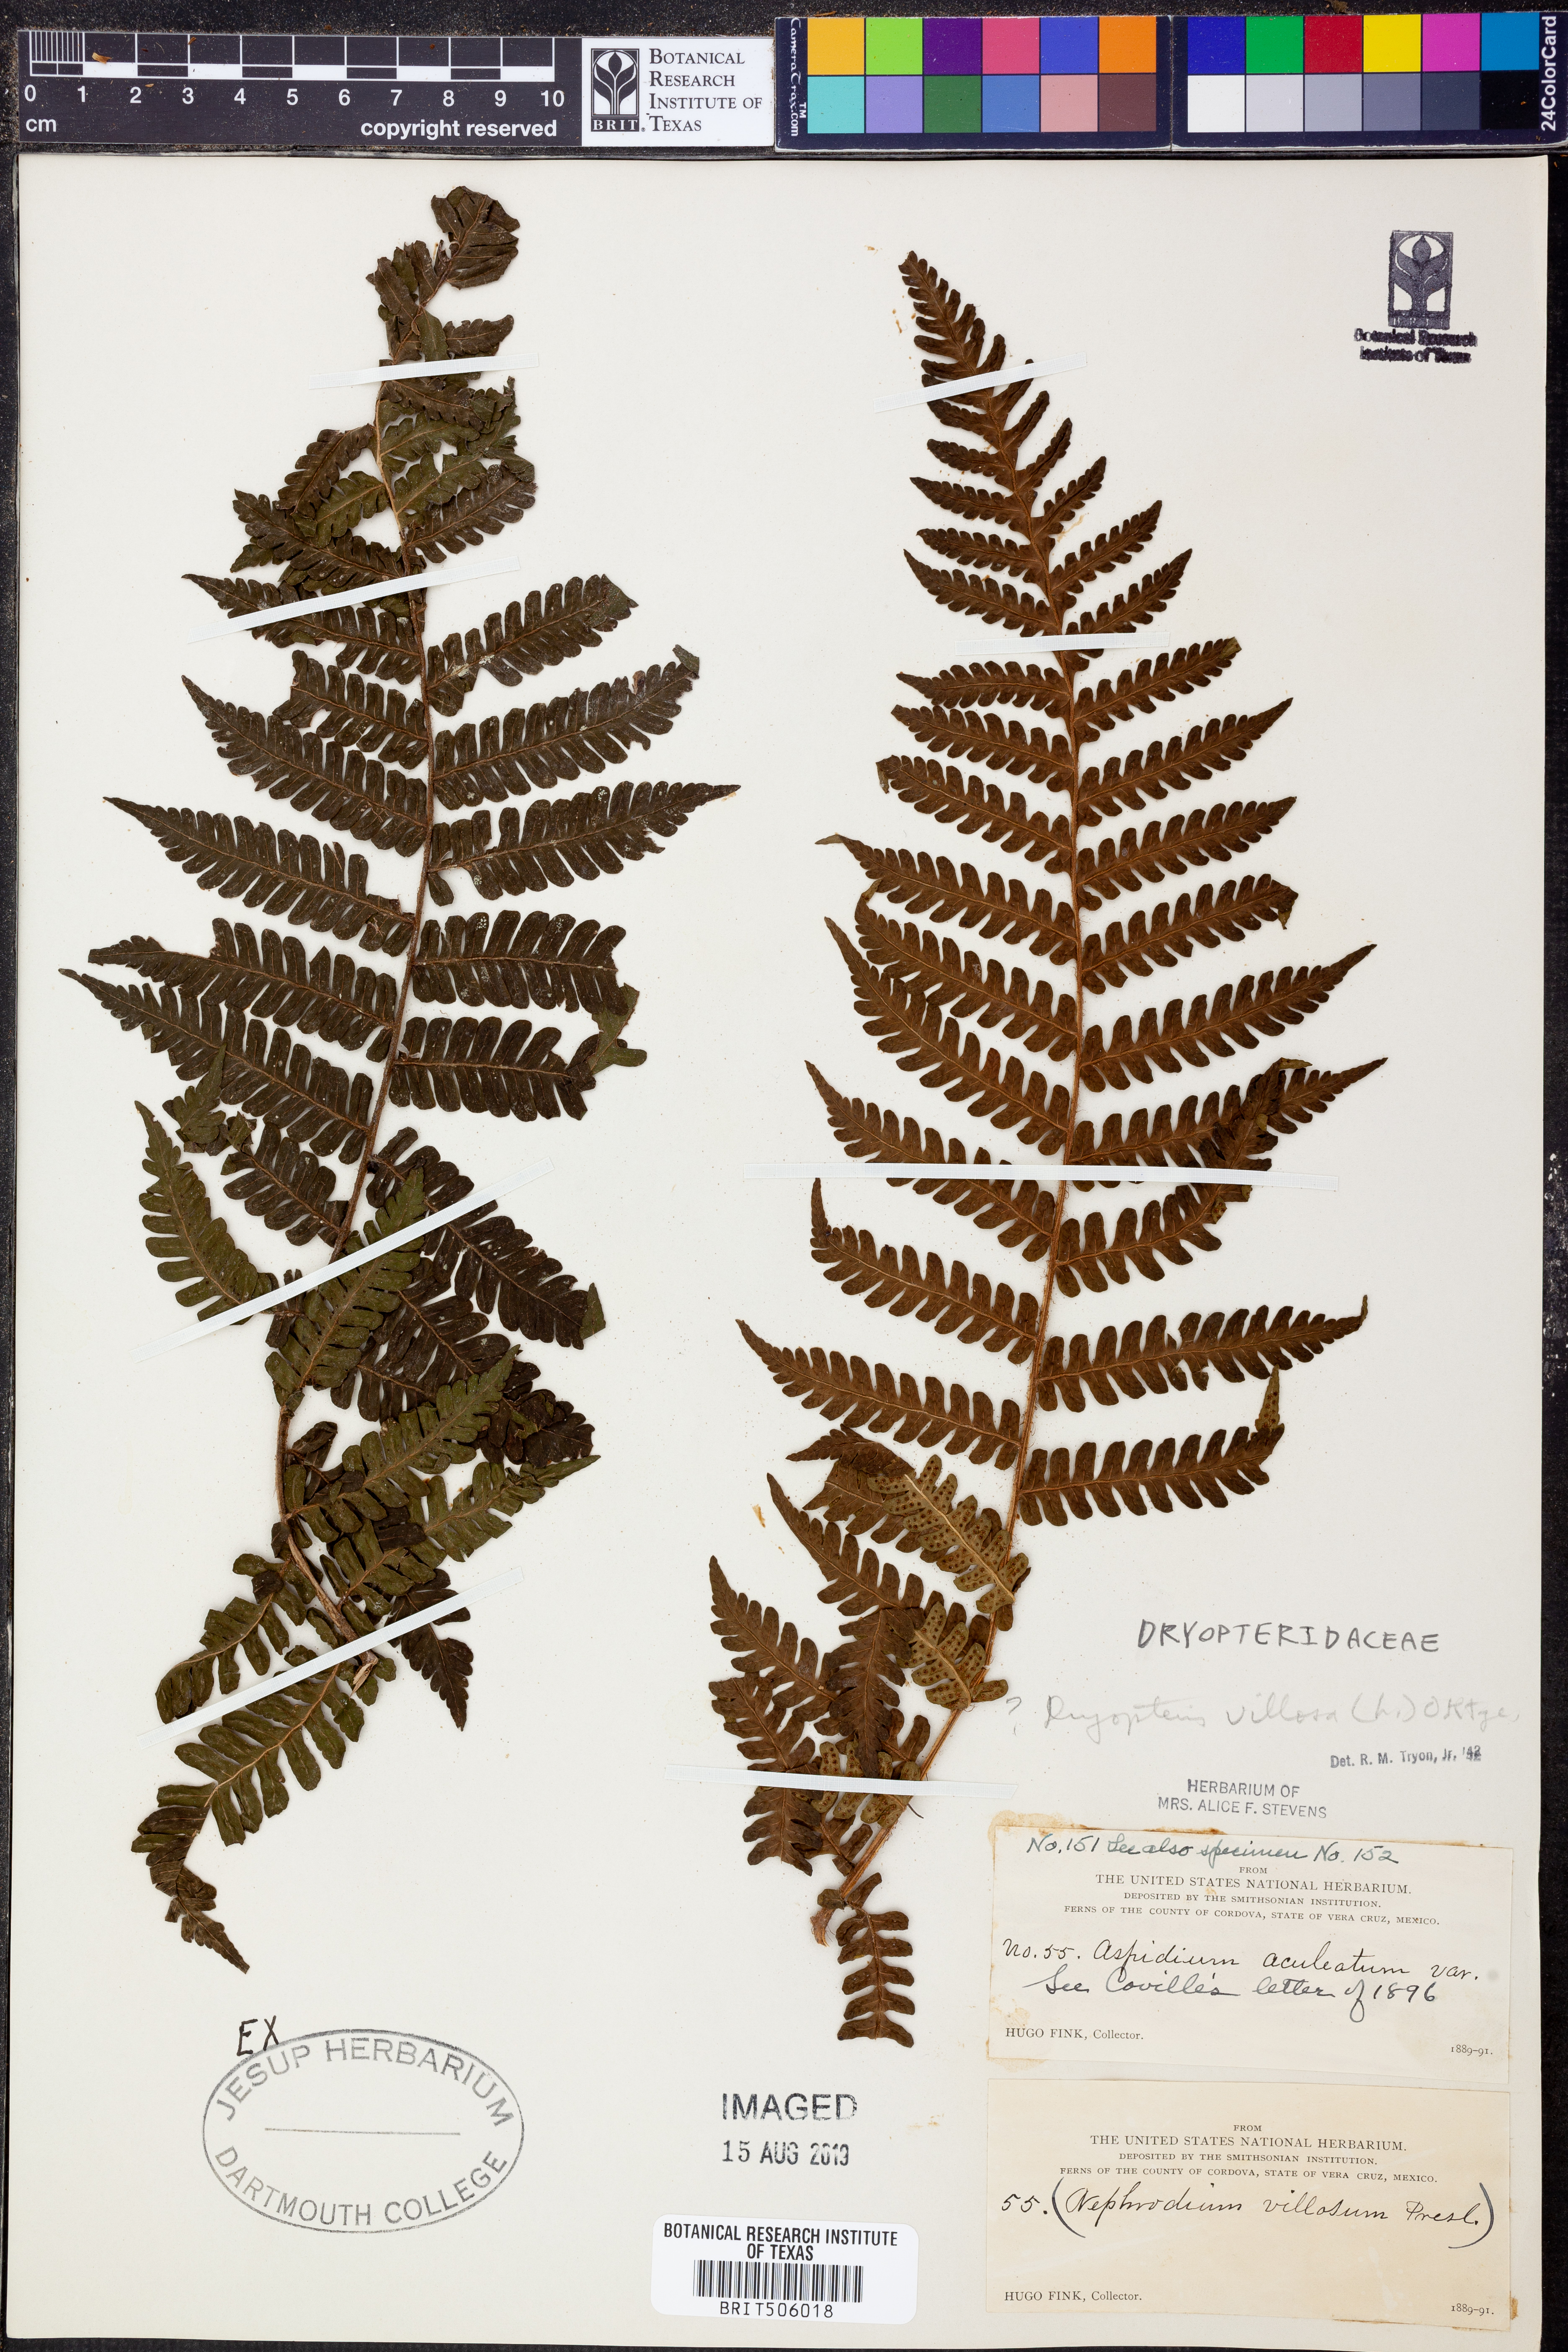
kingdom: Plantae
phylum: Tracheophyta
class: Polypodiopsida
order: Polypodiales
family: Dryopteridaceae
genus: Megalastrum
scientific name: Megalastrum villosum
